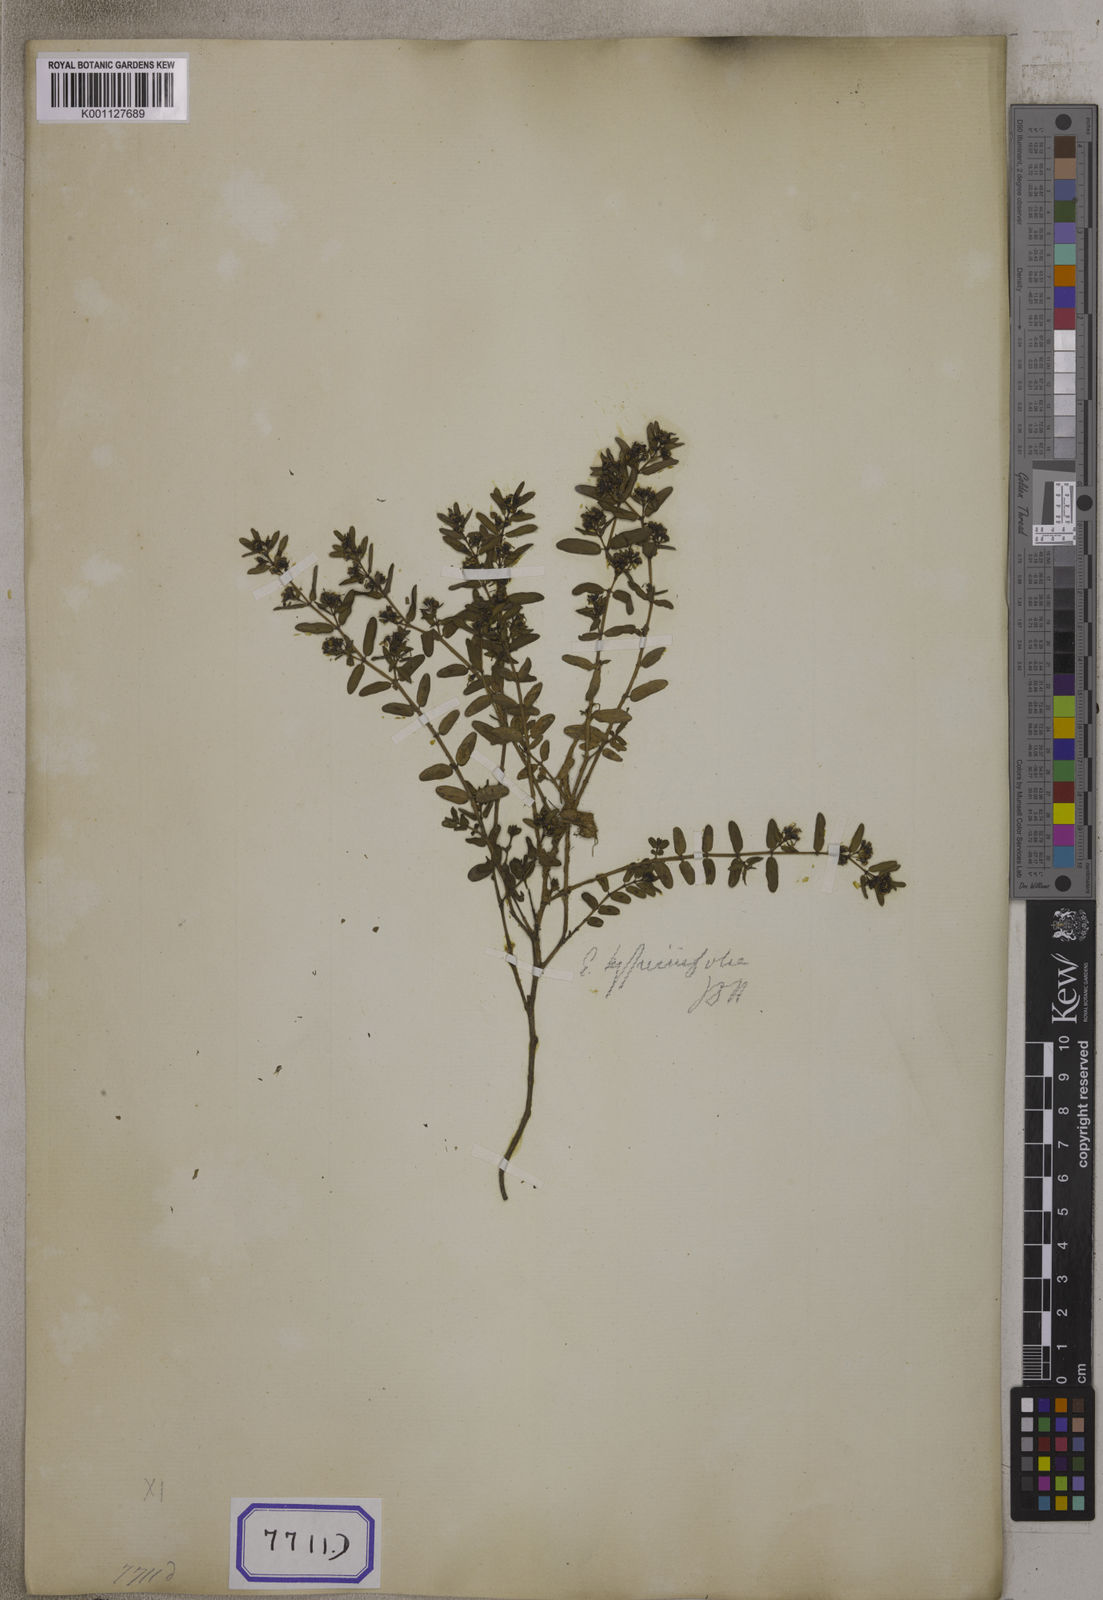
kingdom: Plantae
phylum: Tracheophyta
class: Magnoliopsida
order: Malpighiales
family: Euphorbiaceae
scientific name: Euphorbiaceae
